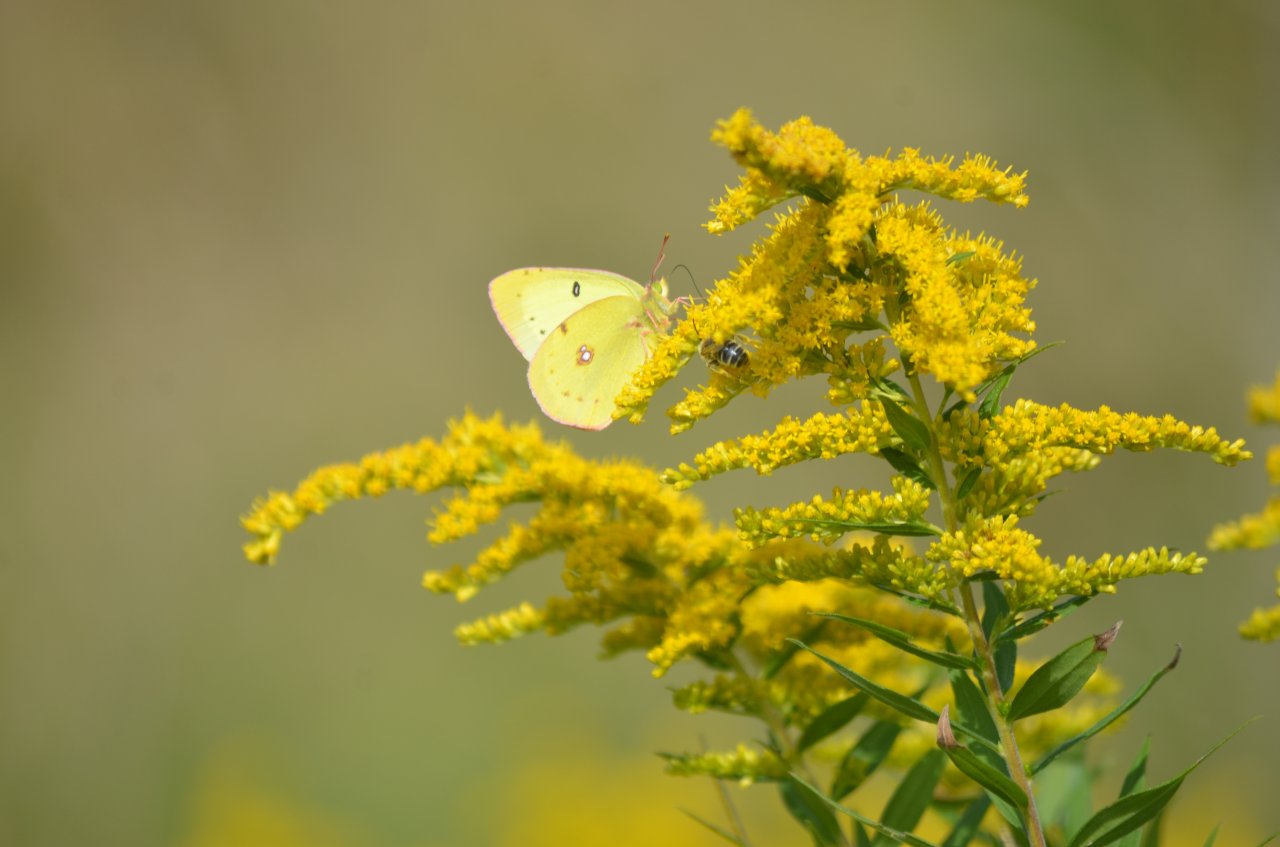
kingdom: Animalia
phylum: Arthropoda
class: Insecta
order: Lepidoptera
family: Pieridae
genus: Colias
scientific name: Colias philodice
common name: Clouded Sulphur
